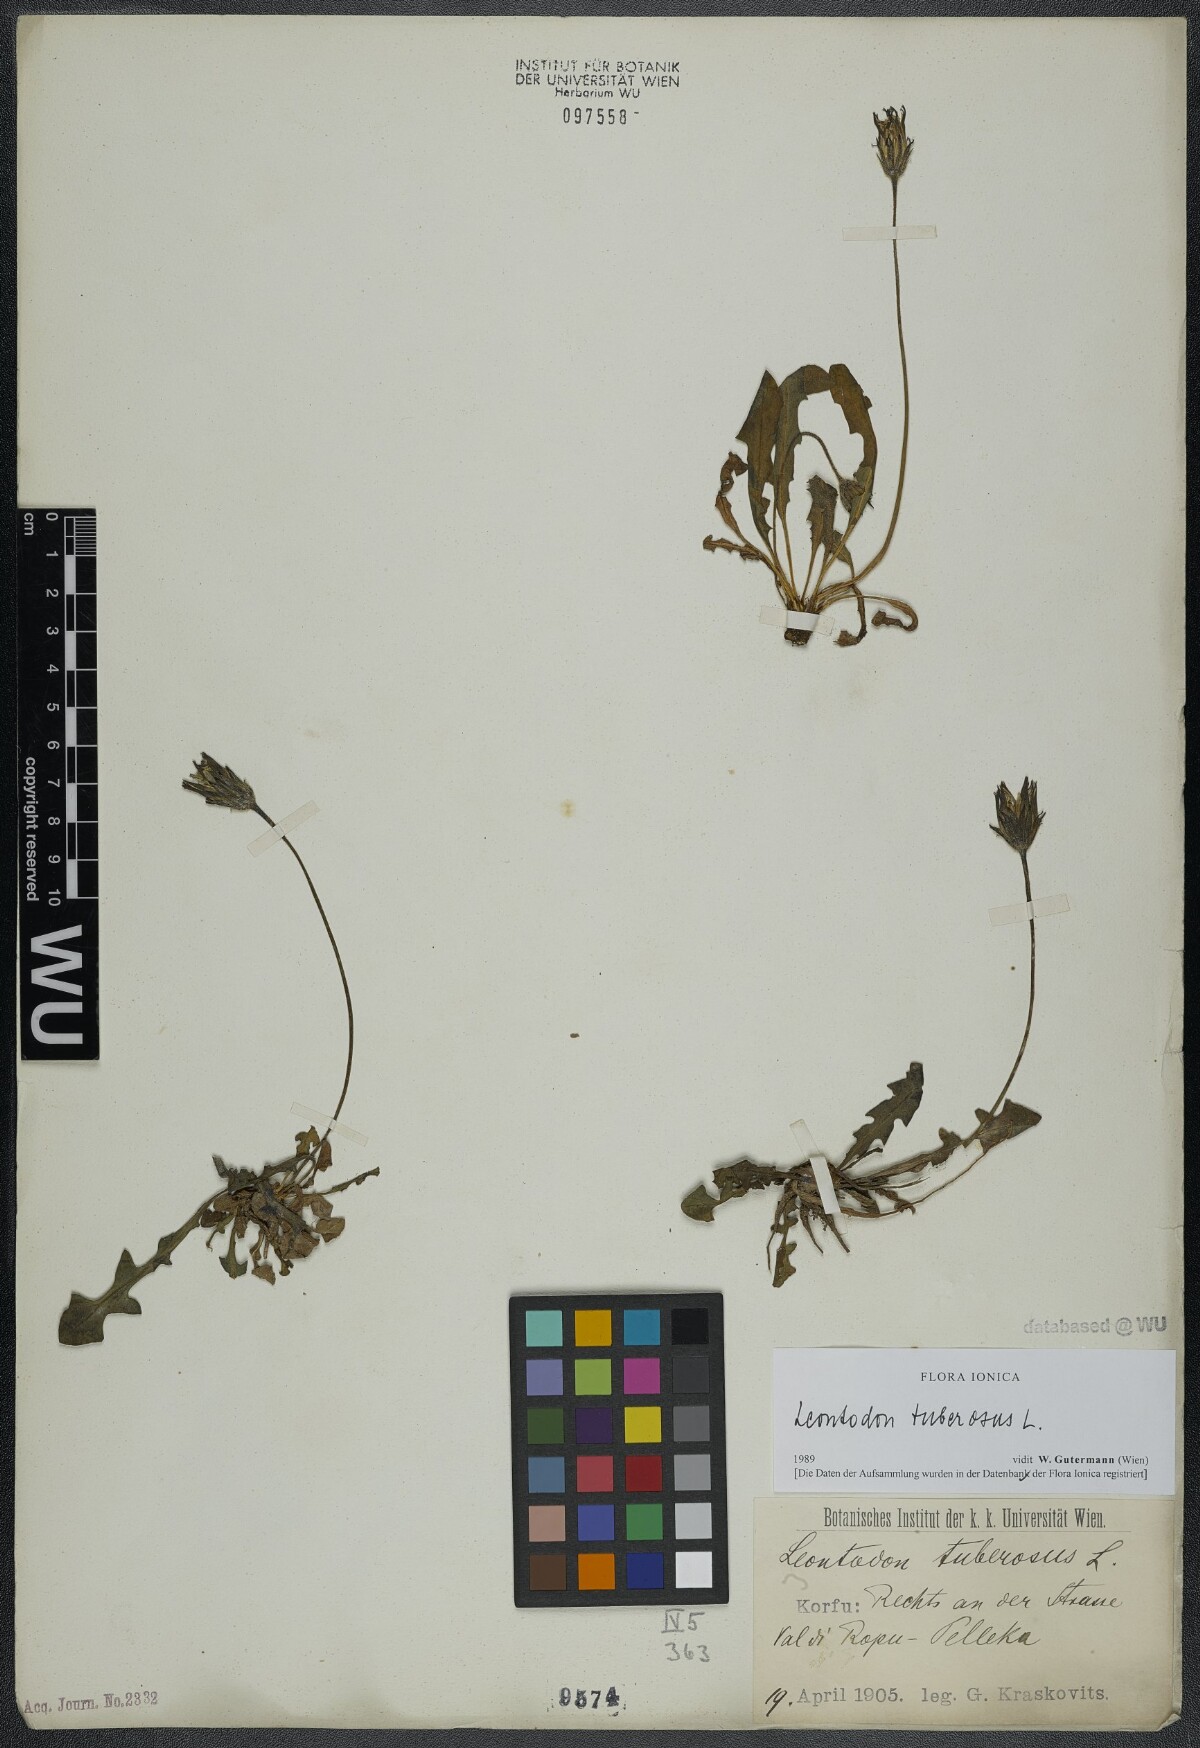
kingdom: Plantae
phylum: Tracheophyta
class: Magnoliopsida
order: Asterales
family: Asteraceae
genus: Thrincia
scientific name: Thrincia tuberosa
